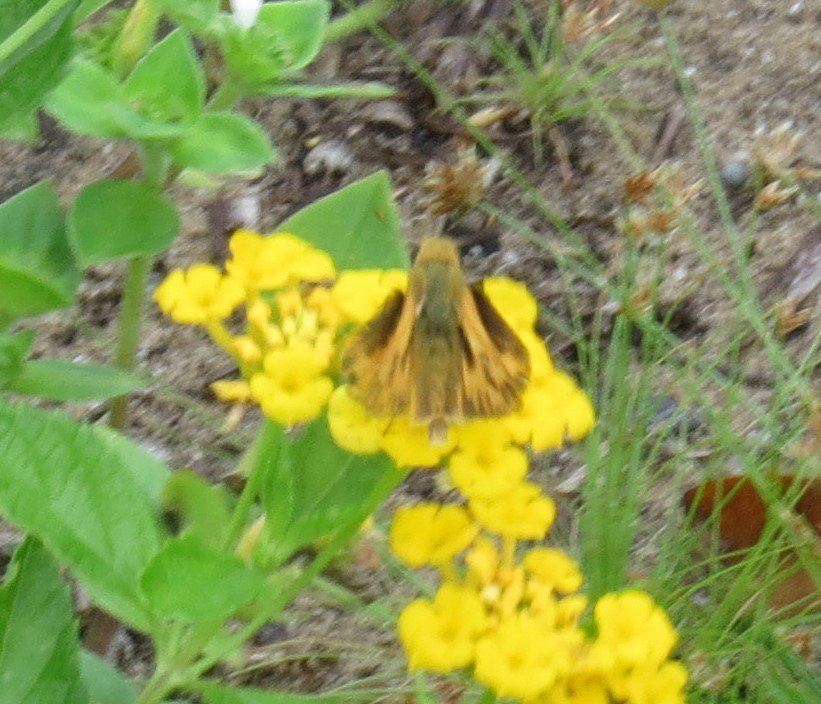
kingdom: Animalia
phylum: Arthropoda
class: Insecta
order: Lepidoptera
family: Hesperiidae
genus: Hylephila
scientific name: Hylephila phyleus
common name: Fiery Skipper
